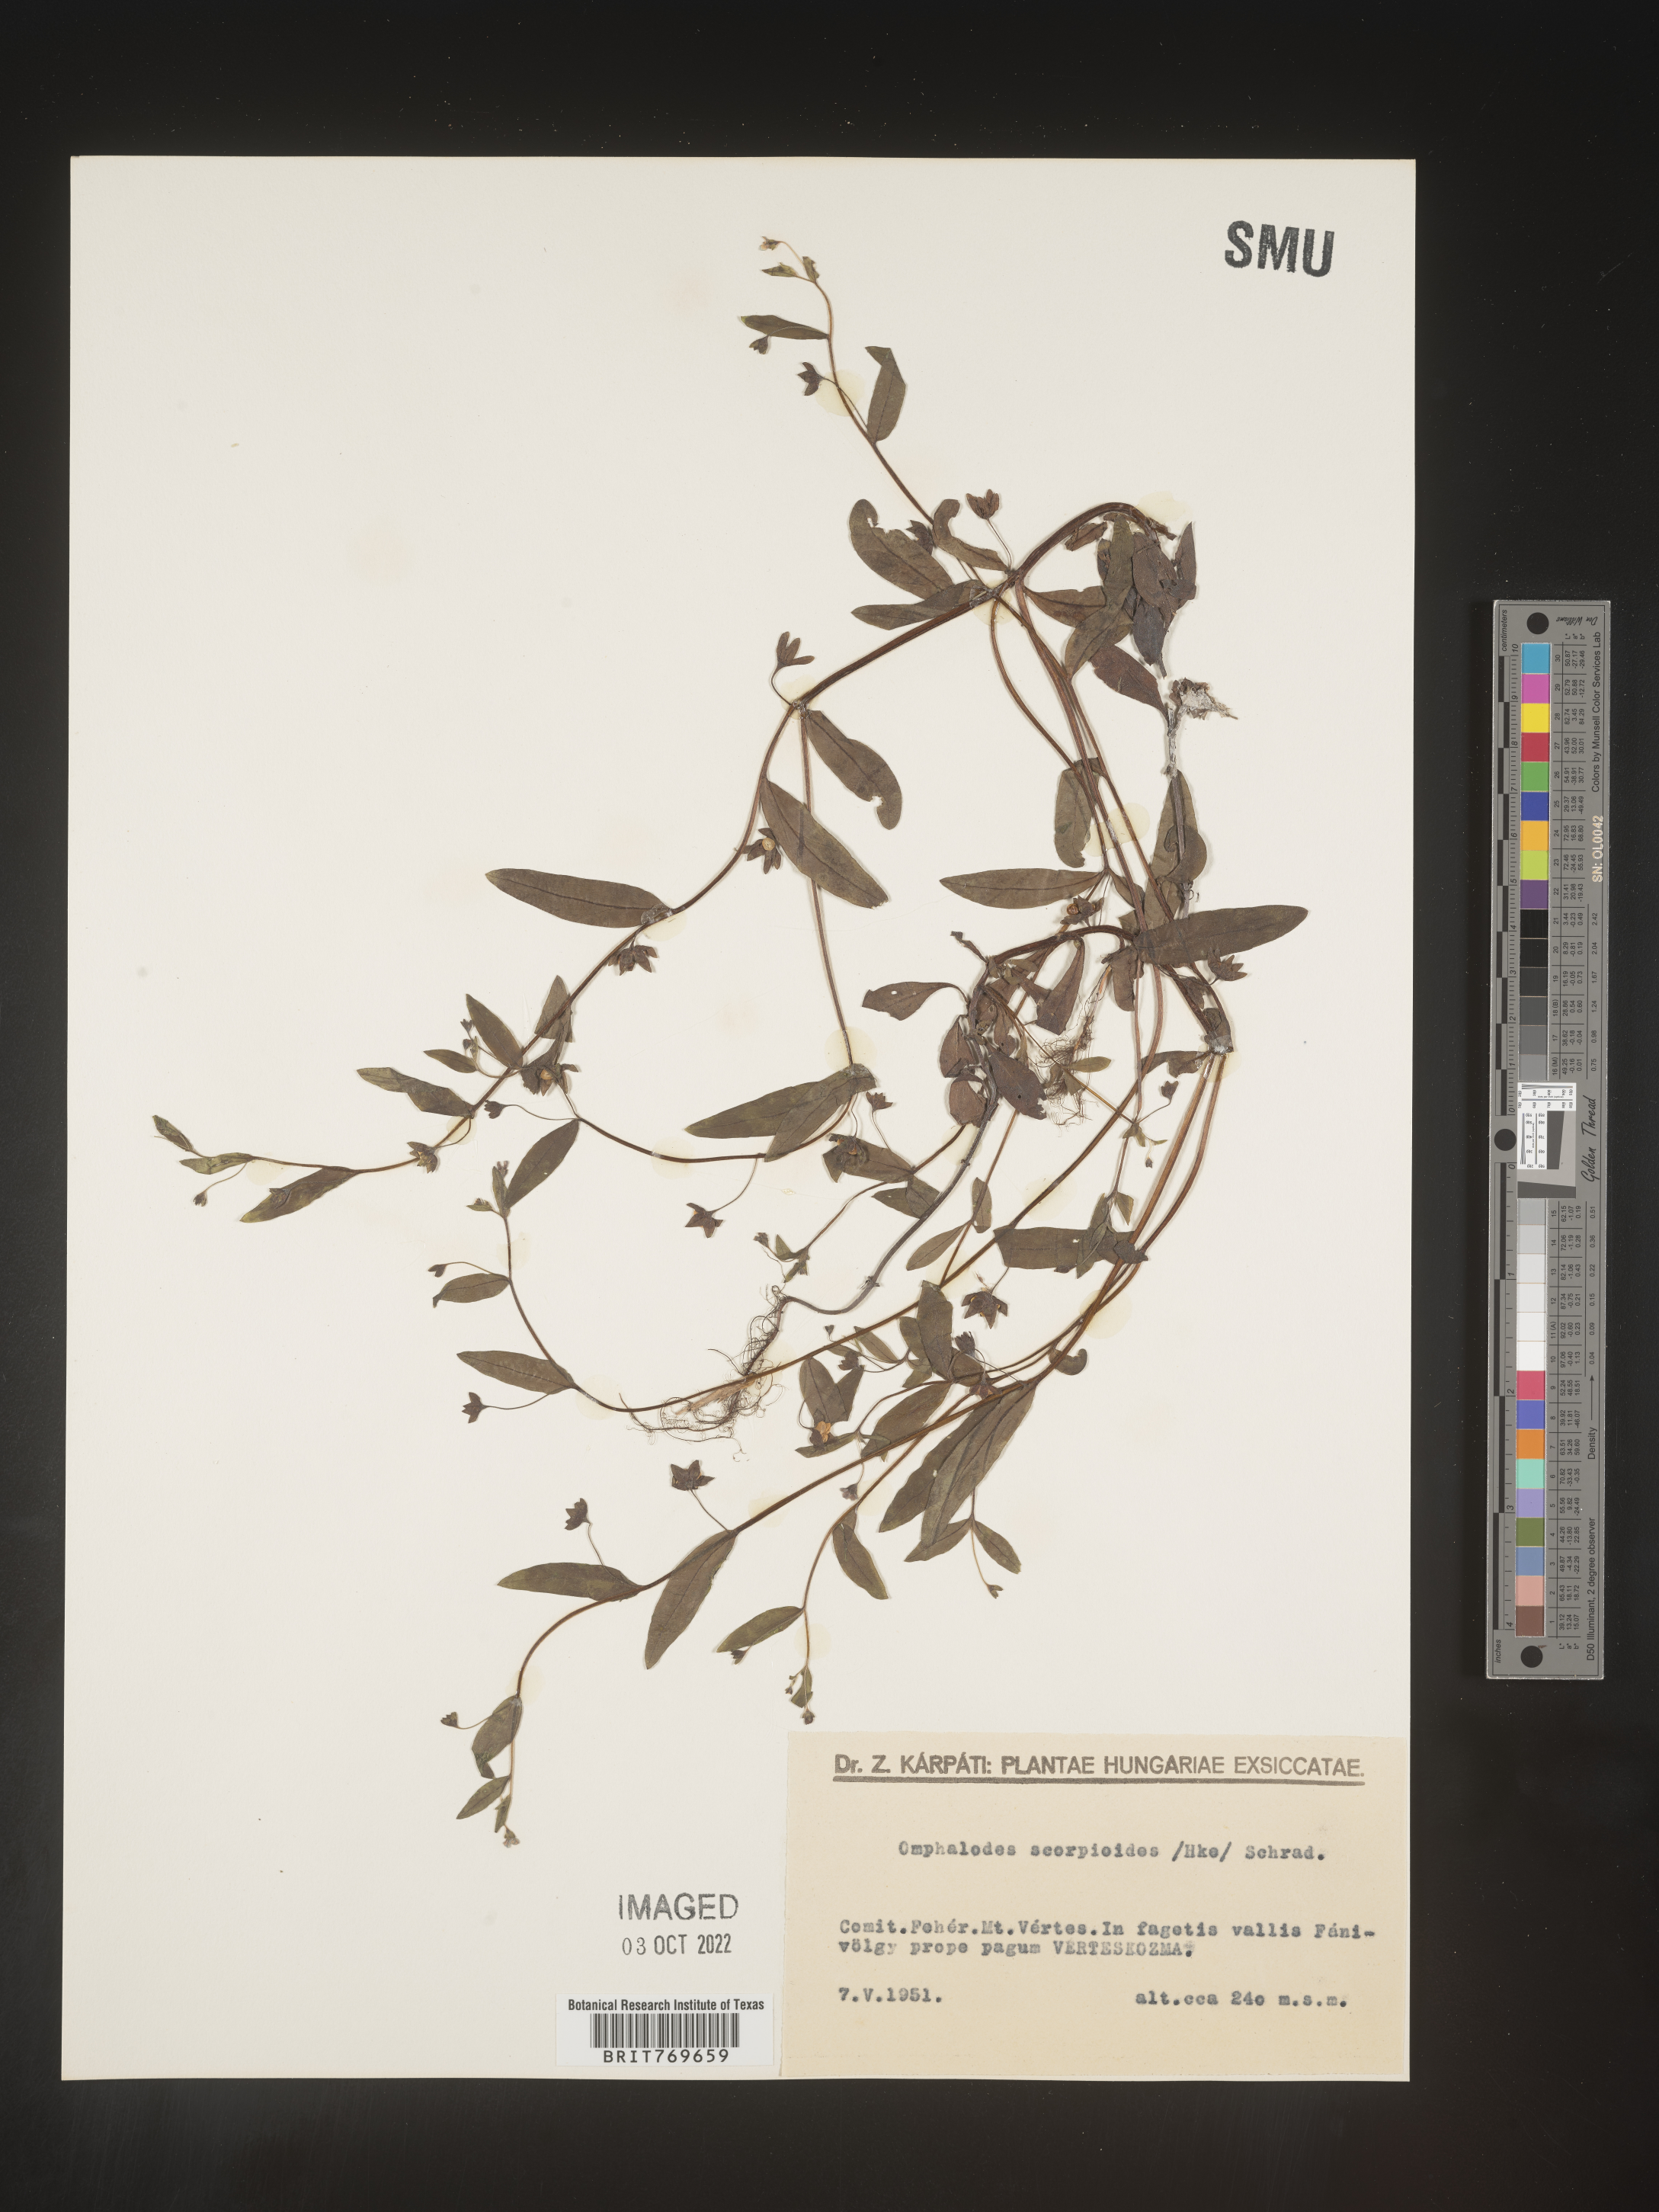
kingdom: Plantae
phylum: Tracheophyta
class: Magnoliopsida
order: Boraginales
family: Boraginaceae
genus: Omphalodes
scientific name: Omphalodes
